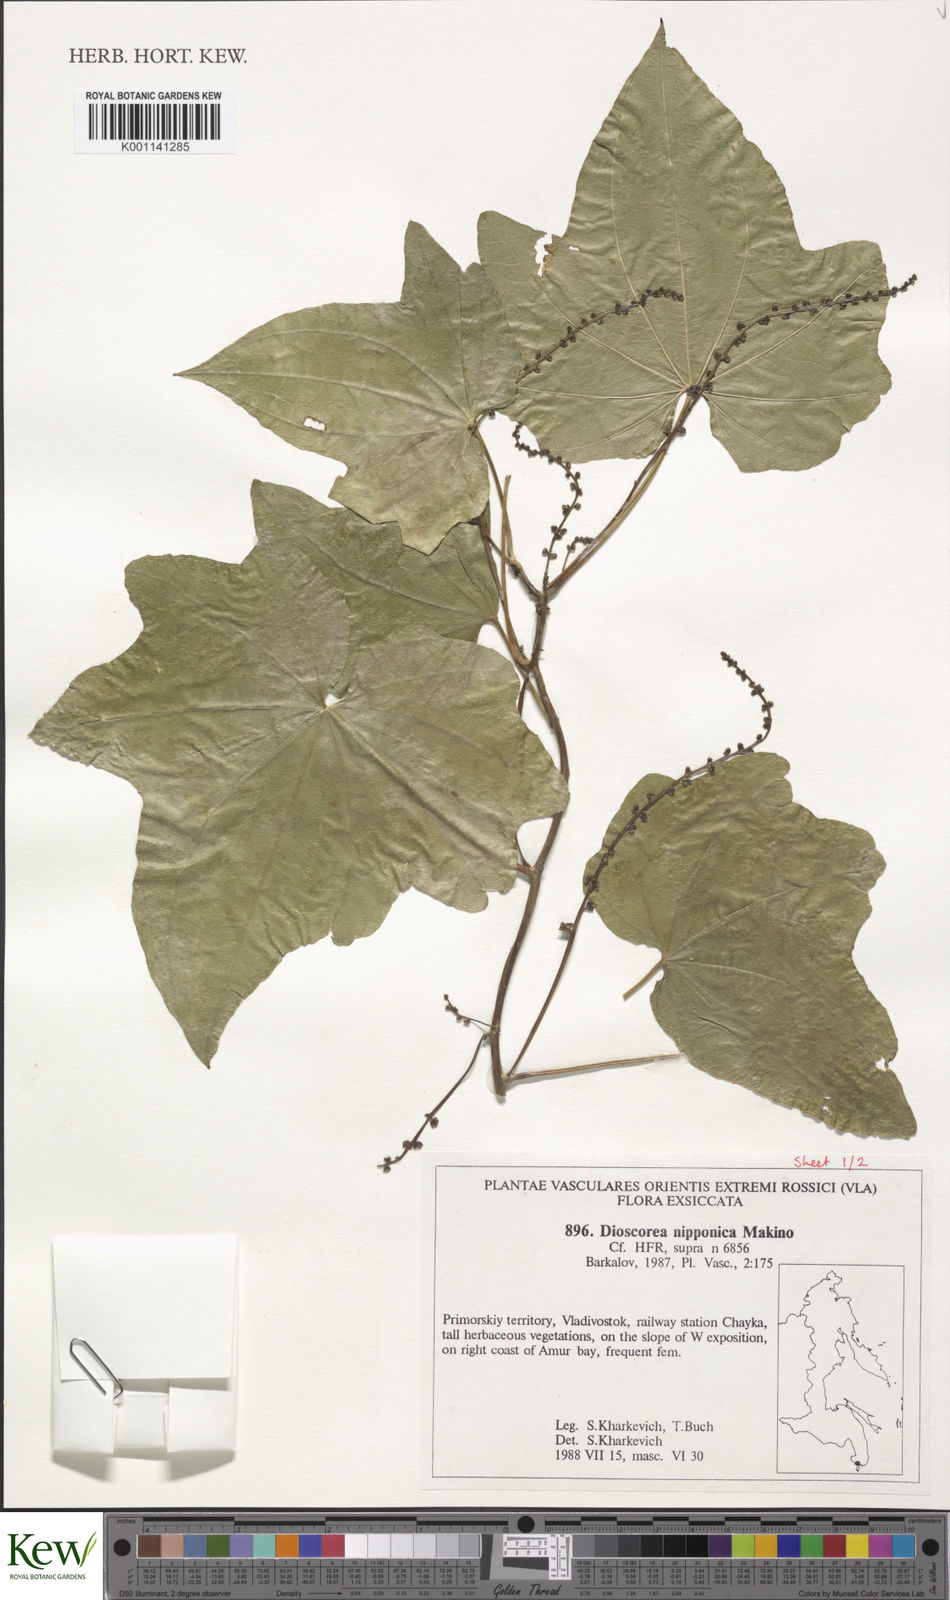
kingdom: Plantae
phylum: Tracheophyta
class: Liliopsida
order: Dioscoreales
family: Dioscoreaceae
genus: Dioscorea
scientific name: Dioscorea nipponica
